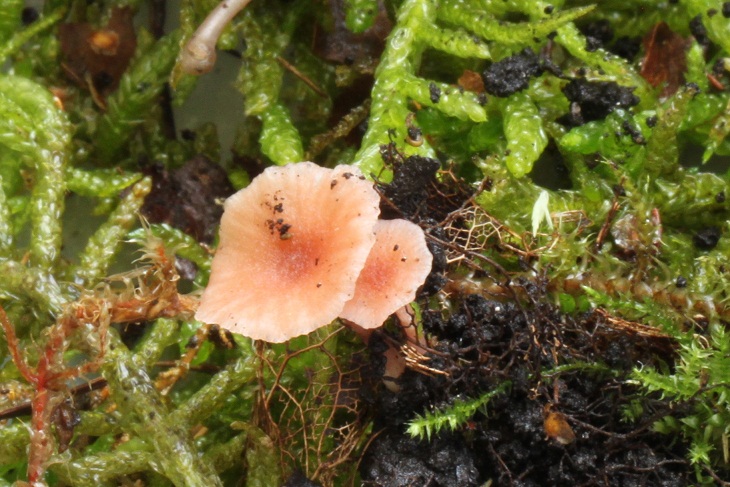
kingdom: Fungi
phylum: Basidiomycota
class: Agaricomycetes
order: Agaricales
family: Hydnangiaceae
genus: Laccaria
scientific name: Laccaria tortilis
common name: krybende ametysthat
